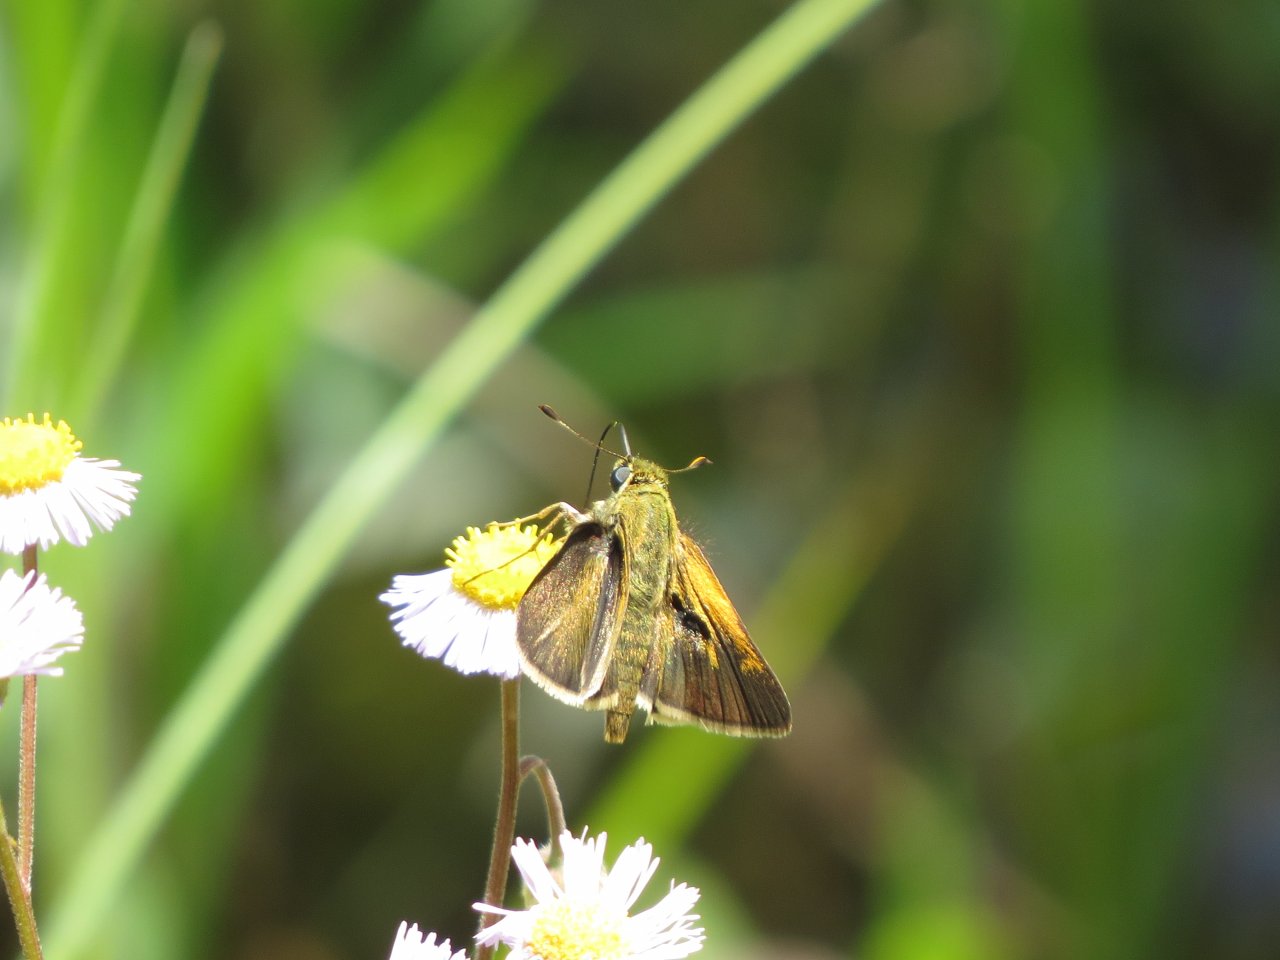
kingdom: Animalia
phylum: Arthropoda
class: Insecta
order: Lepidoptera
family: Hesperiidae
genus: Polites
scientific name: Polites themistocles
